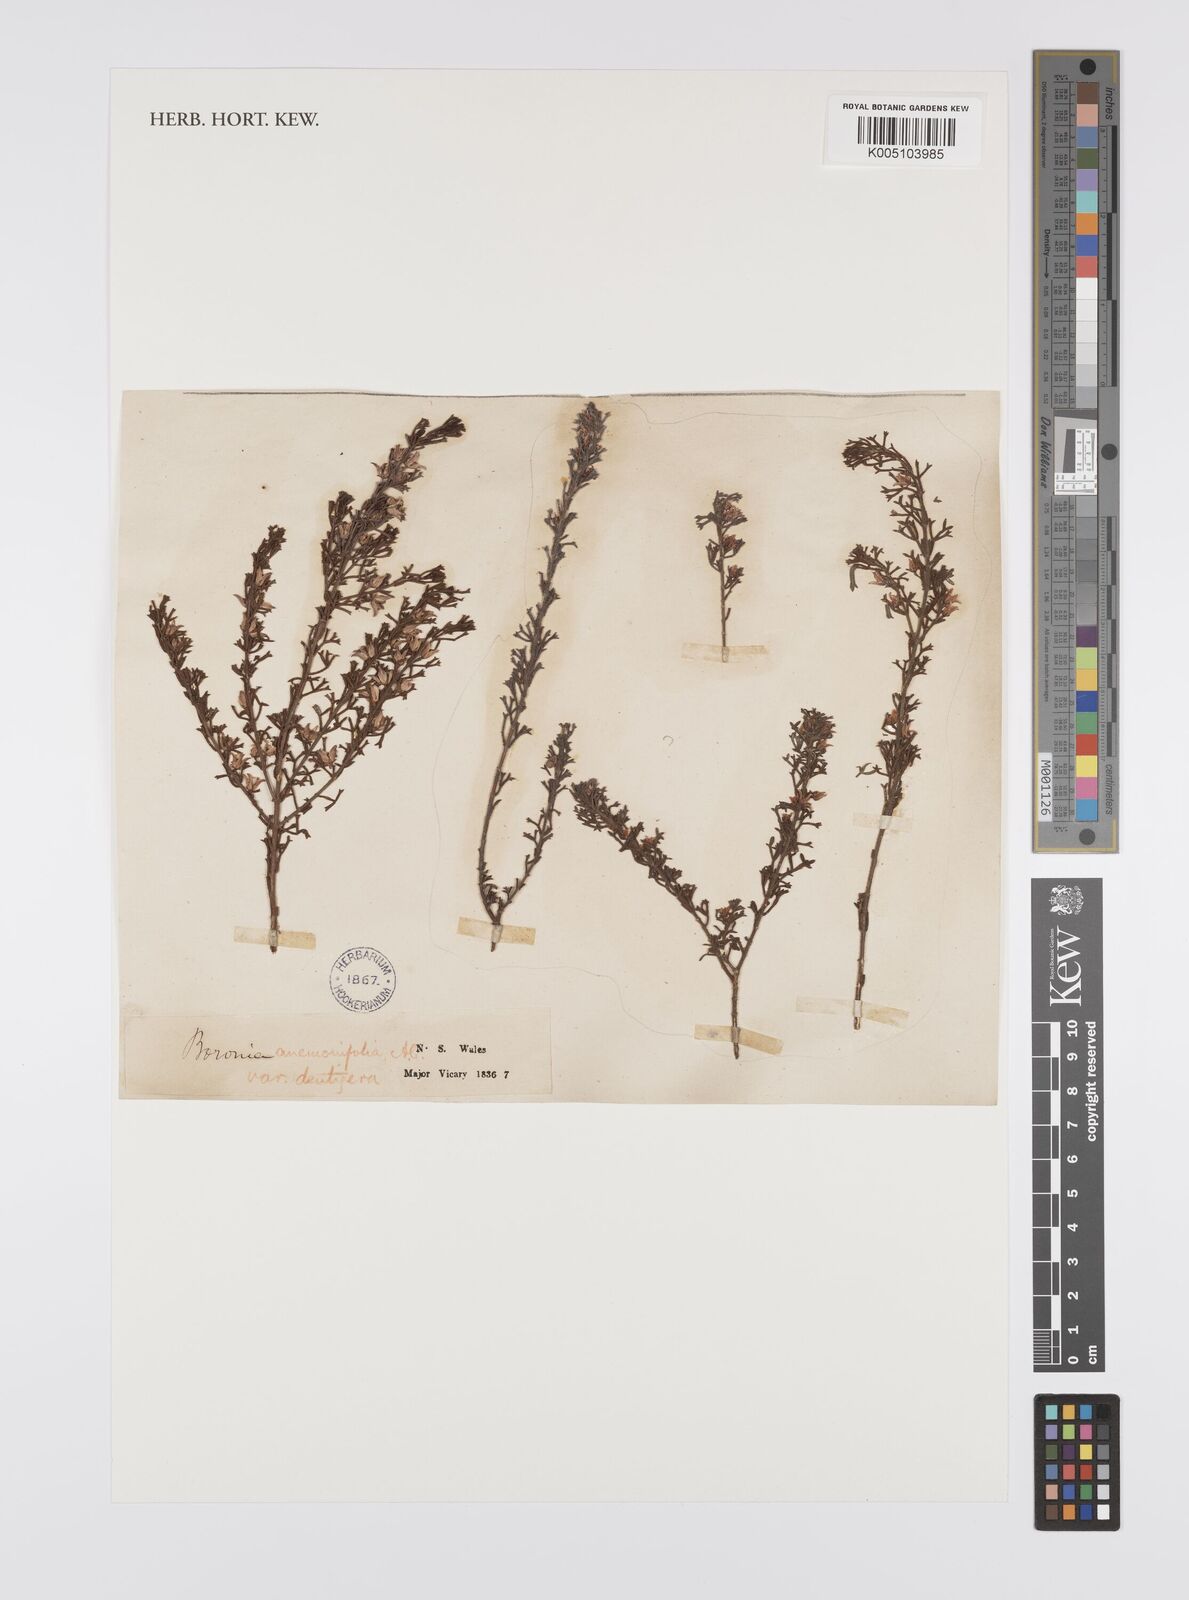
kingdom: Plantae
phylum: Tracheophyta
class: Magnoliopsida
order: Sapindales
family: Rutaceae
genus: Cyanothamnus
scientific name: Cyanothamnus anemonifolius
